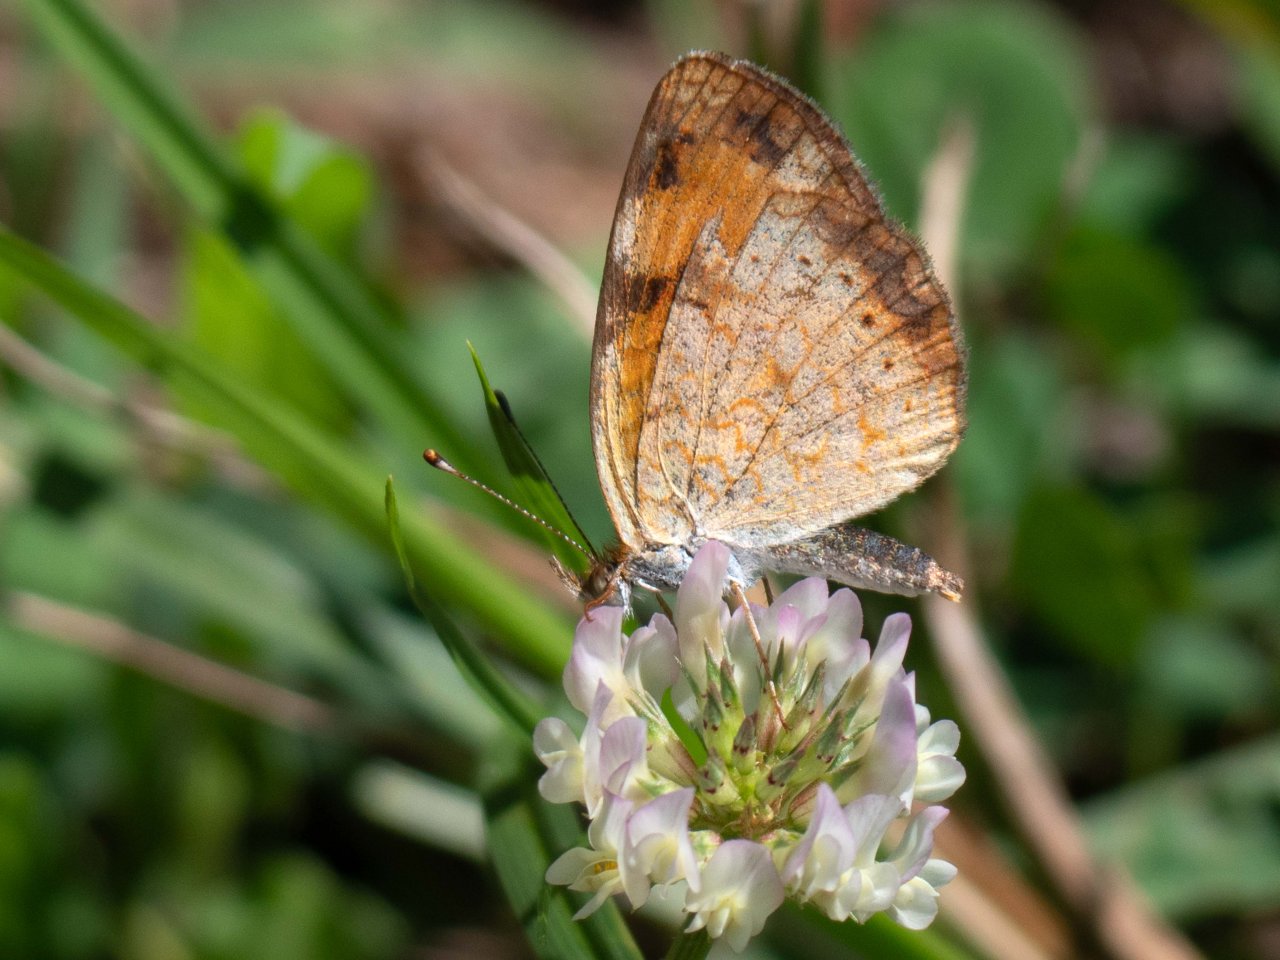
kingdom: Animalia
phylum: Arthropoda
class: Insecta
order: Lepidoptera
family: Nymphalidae
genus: Phyciodes
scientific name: Phyciodes
